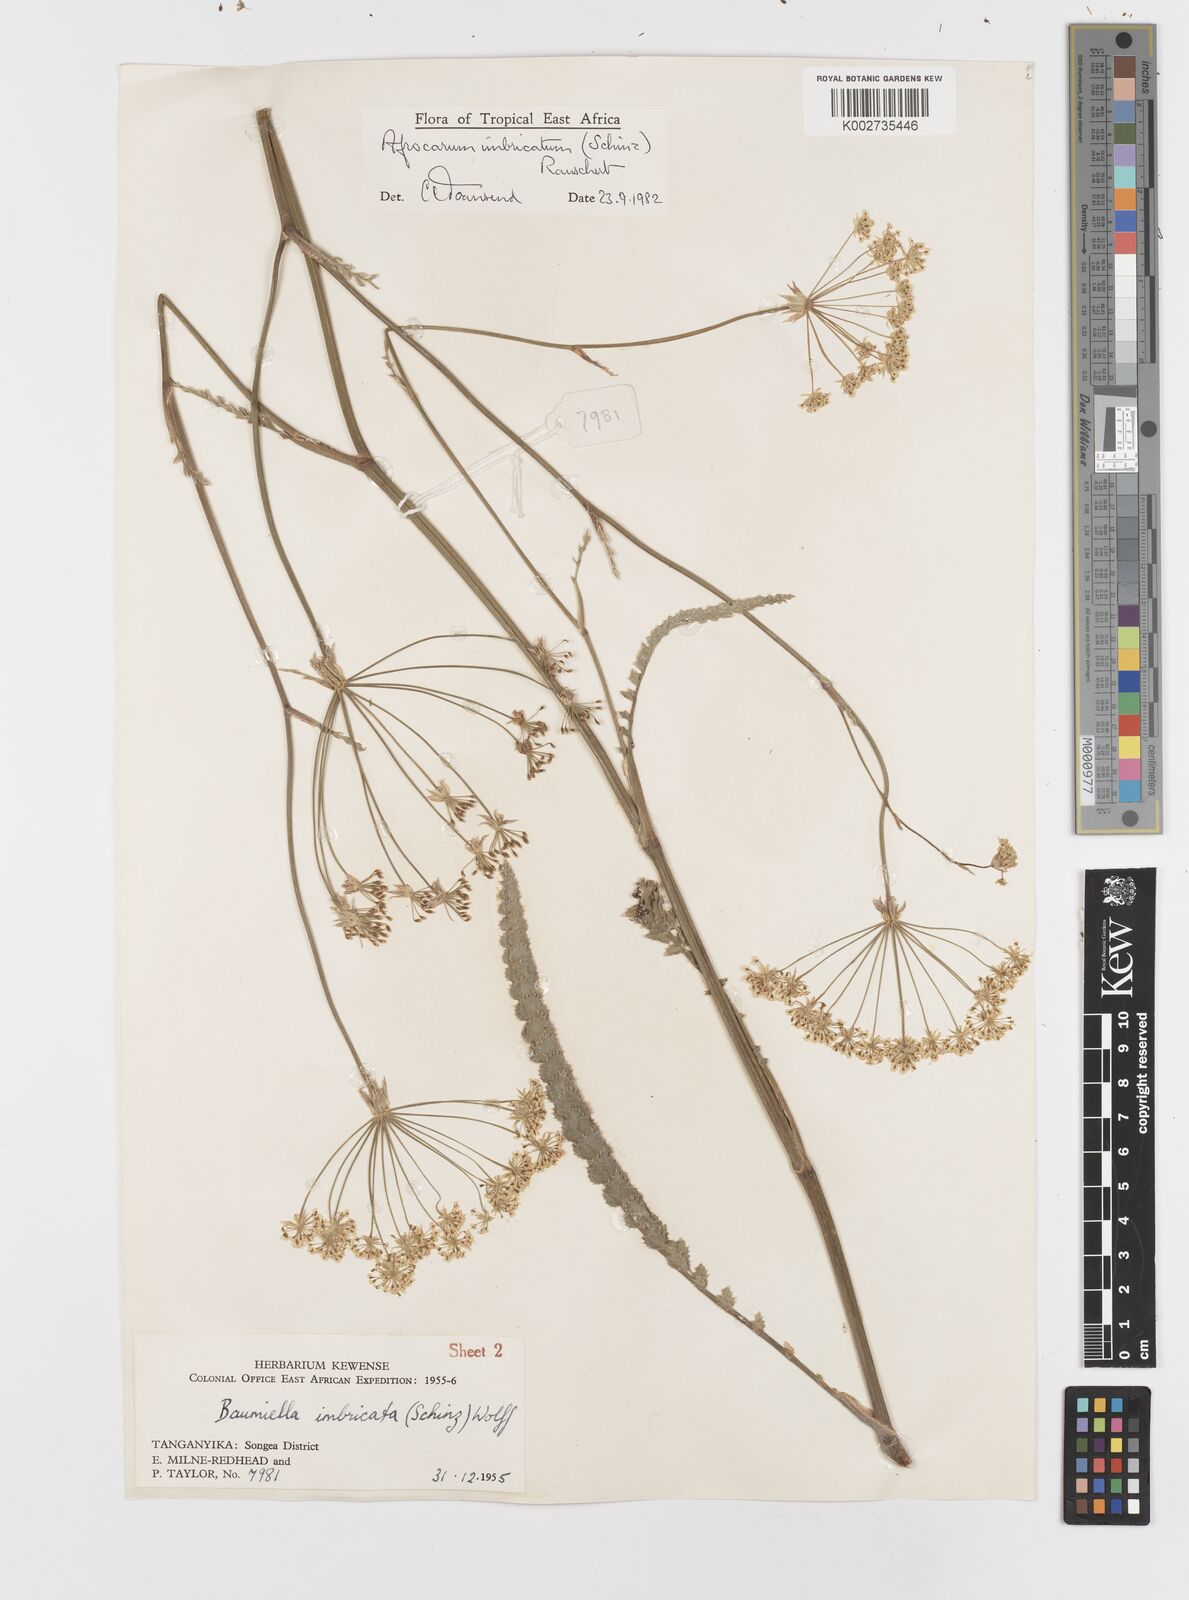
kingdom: Plantae
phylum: Tracheophyta
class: Magnoliopsida
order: Apiales
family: Apiaceae
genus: Berula
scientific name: Berula imbricata
